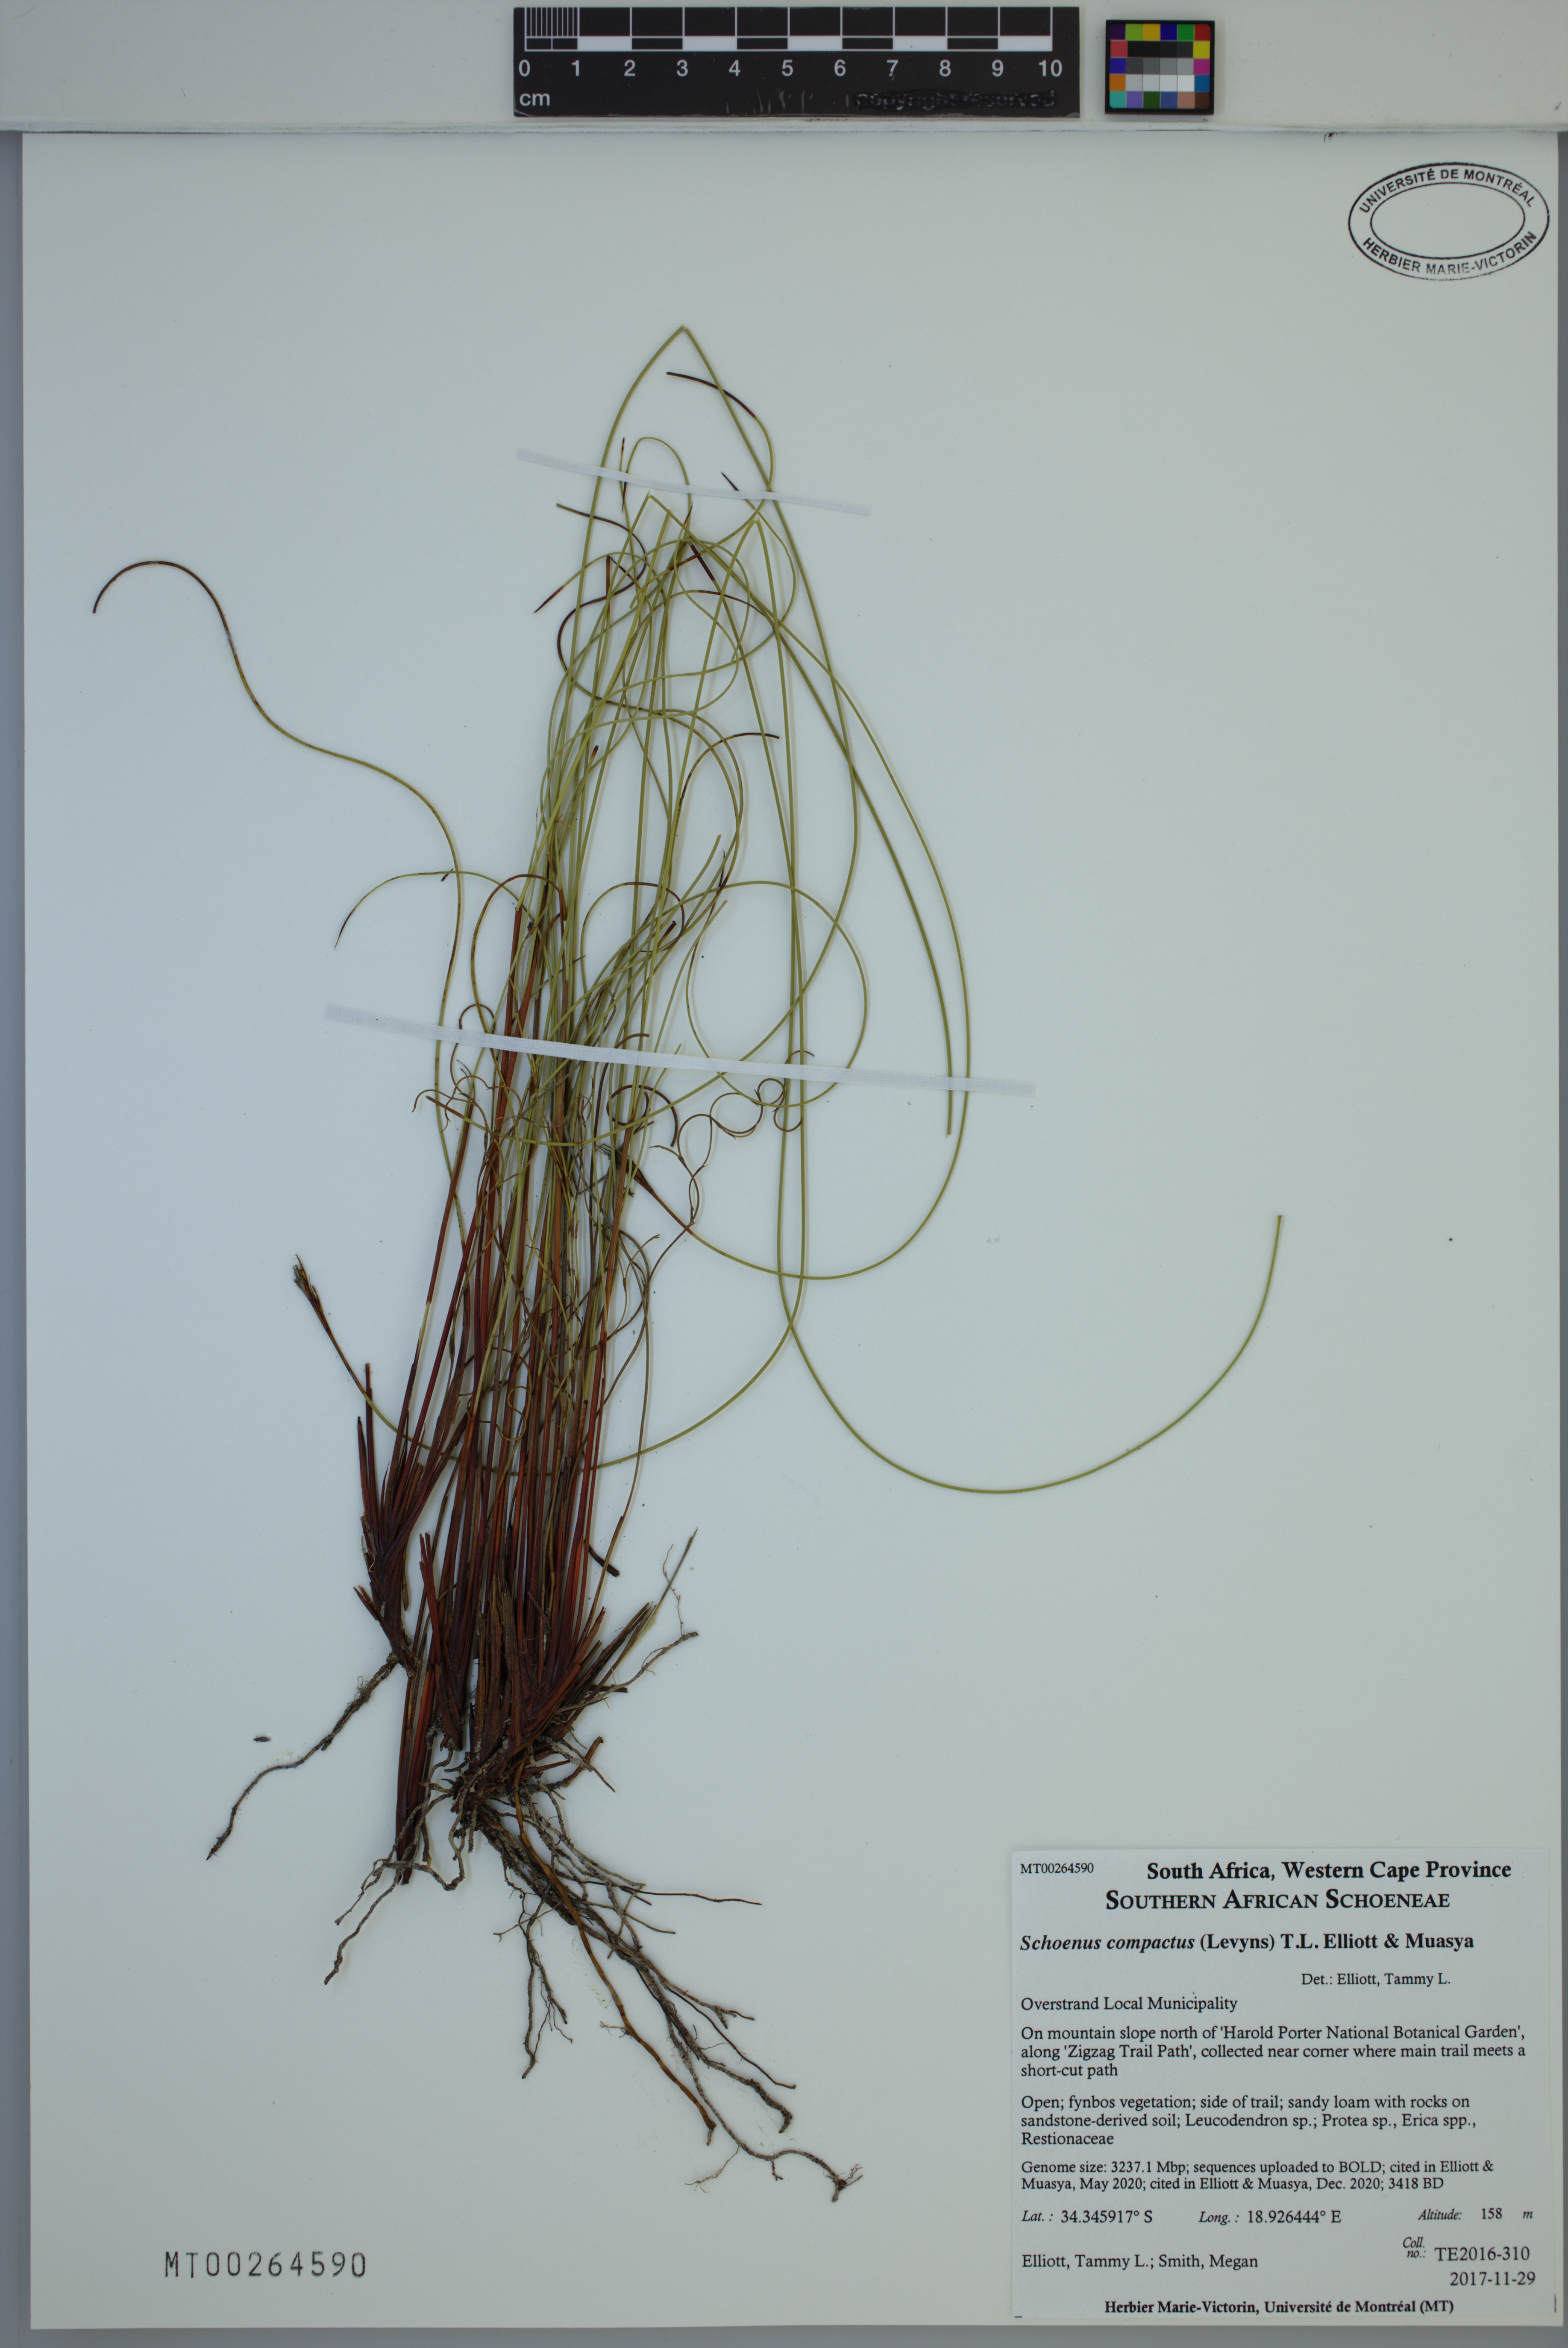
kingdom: Plantae
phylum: Tracheophyta
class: Liliopsida
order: Poales
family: Cyperaceae
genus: Schoenus
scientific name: Schoenus compactus
